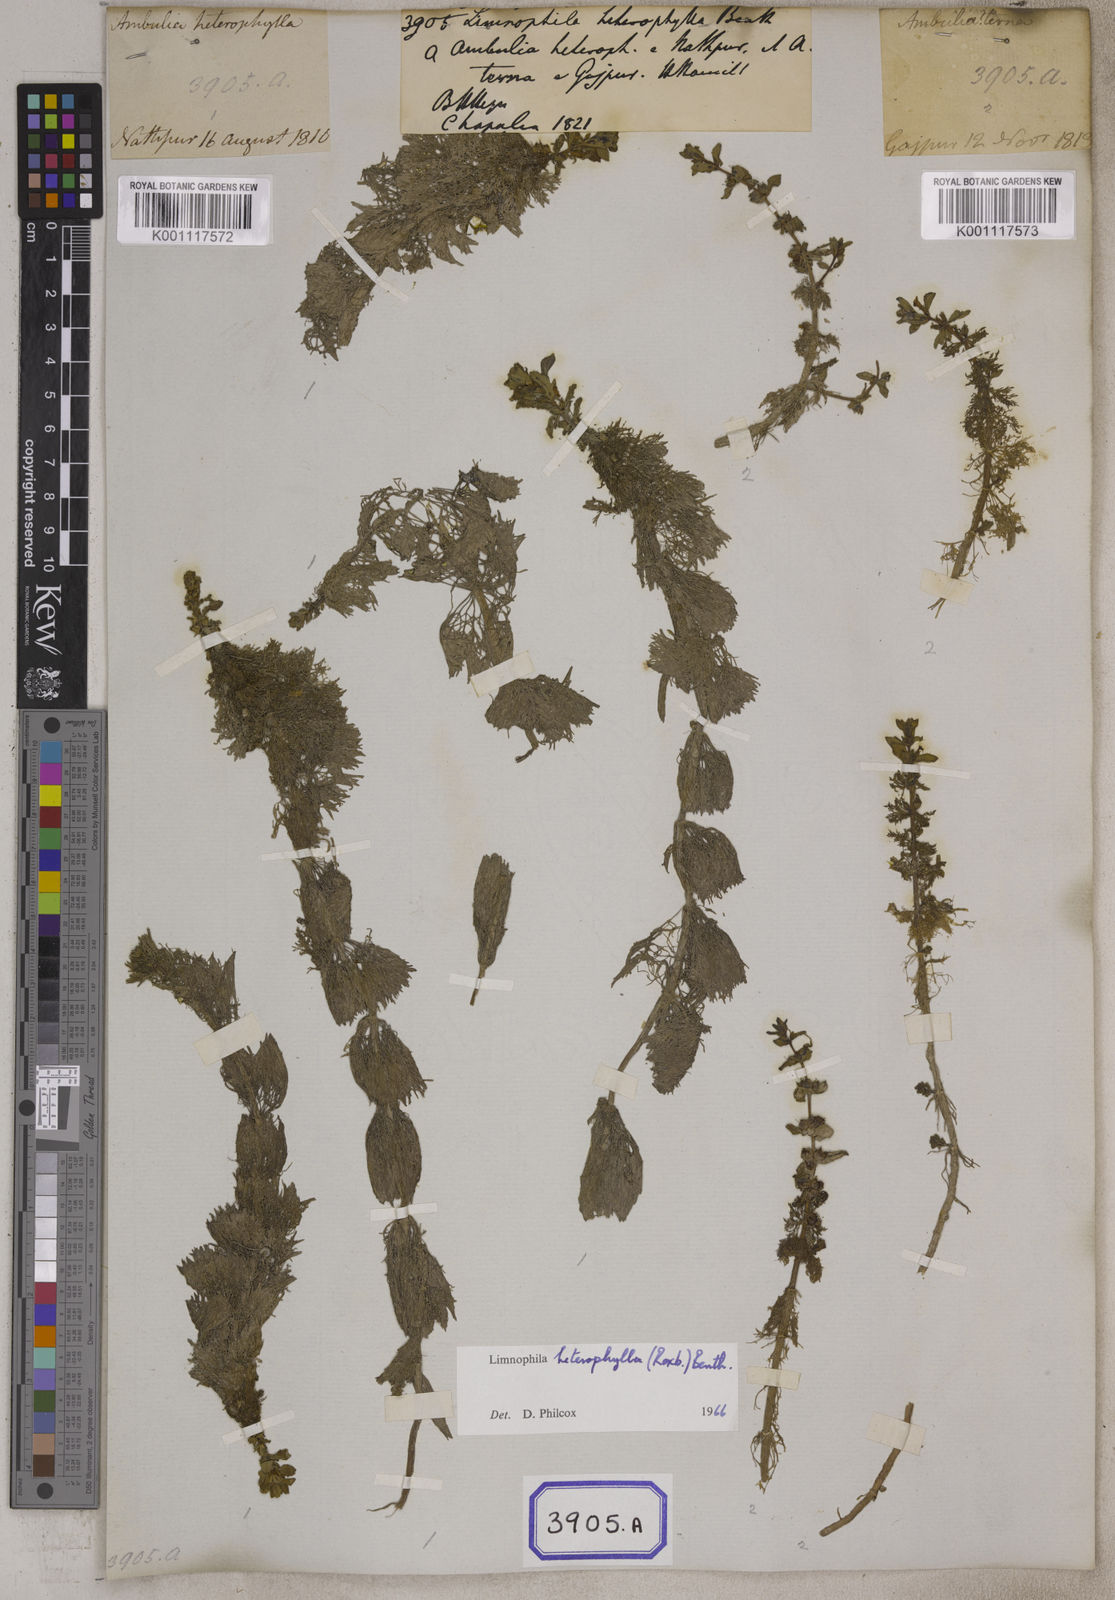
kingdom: Plantae
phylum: Tracheophyta
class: Magnoliopsida
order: Lamiales
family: Plantaginaceae
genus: Limnophila
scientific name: Limnophila heterophylla
